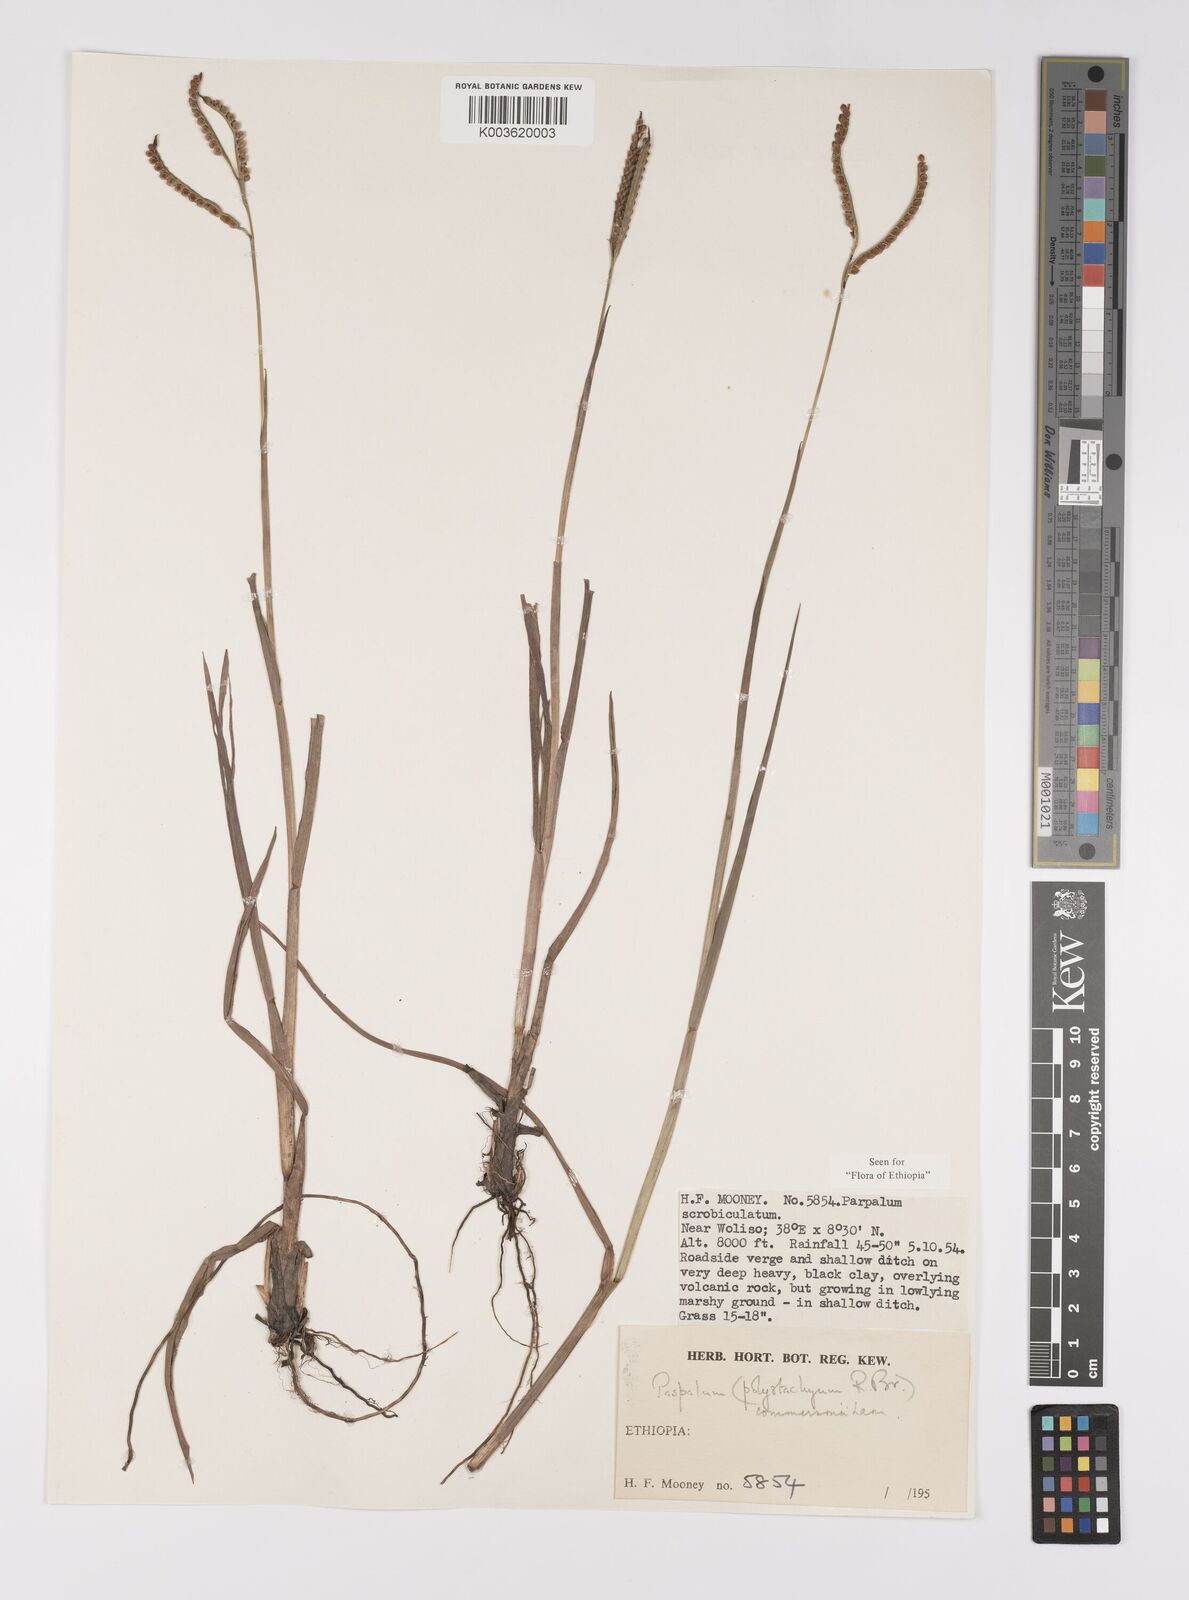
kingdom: Plantae
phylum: Tracheophyta
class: Liliopsida
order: Poales
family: Poaceae
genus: Paspalum
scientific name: Paspalum scrobiculatum
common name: Kodo millet
